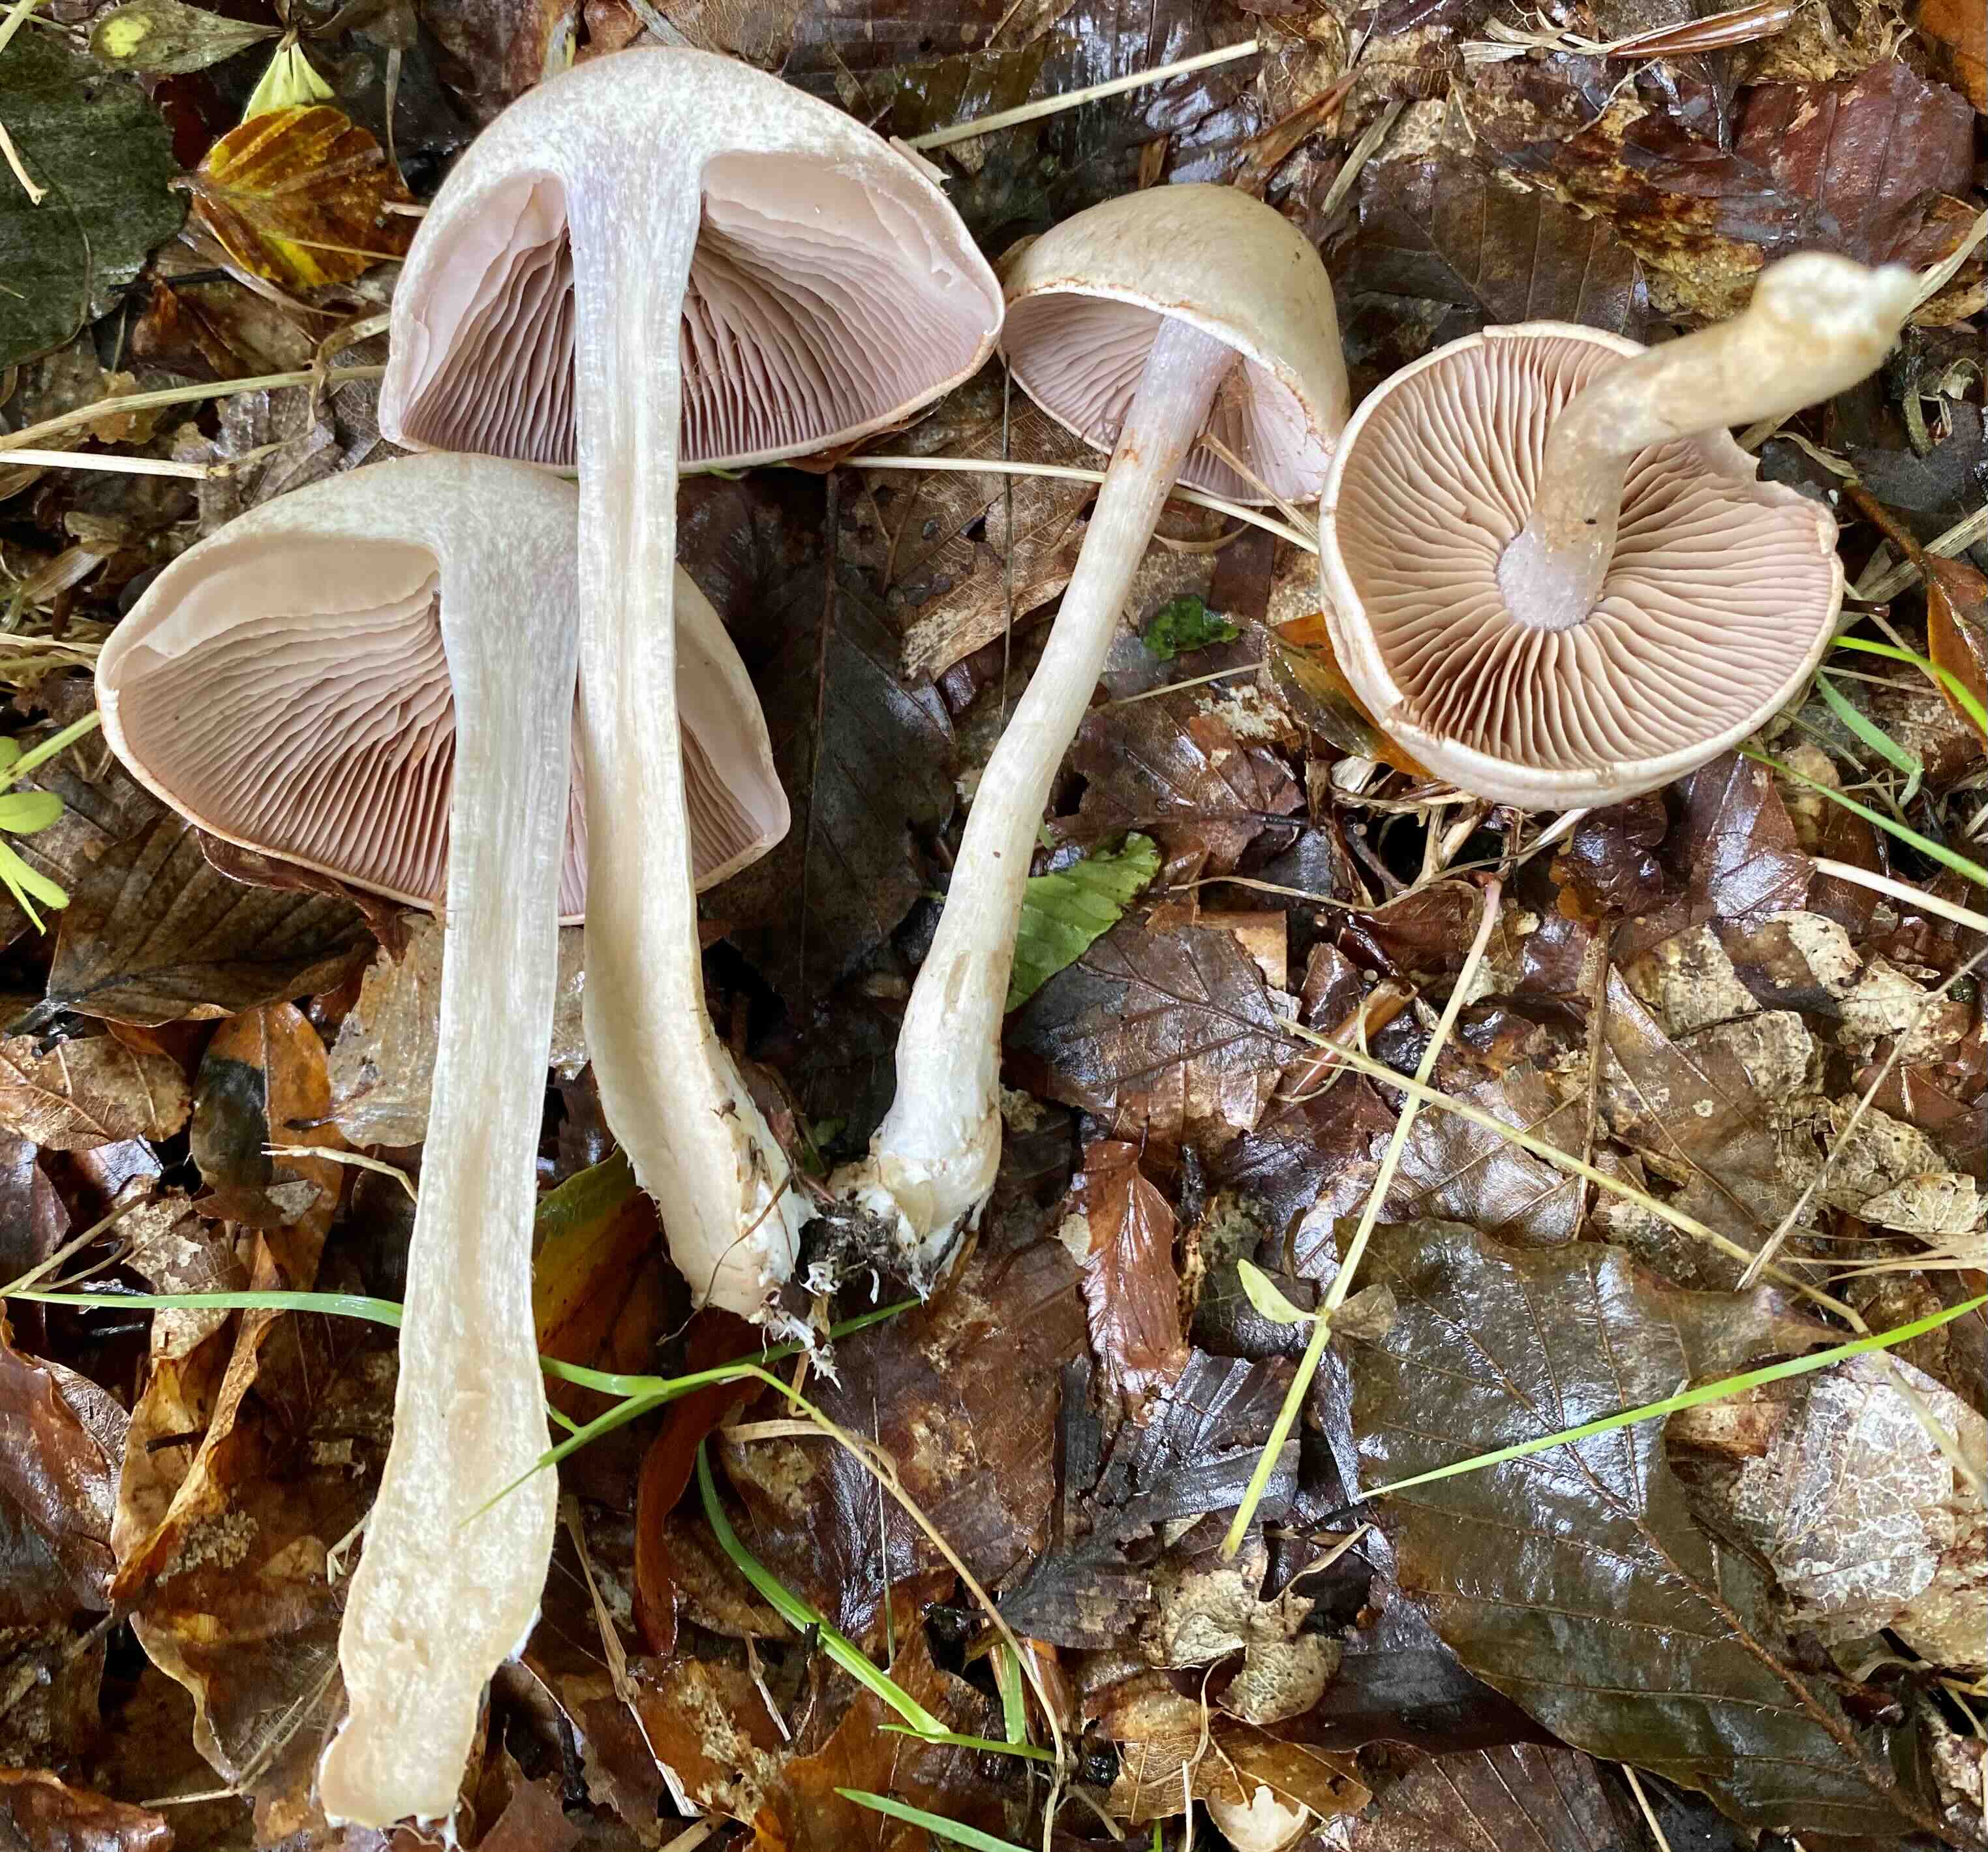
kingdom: Fungi
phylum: Basidiomycota
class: Agaricomycetes
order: Agaricales
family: Cortinariaceae
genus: Cortinarius
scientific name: Cortinarius
